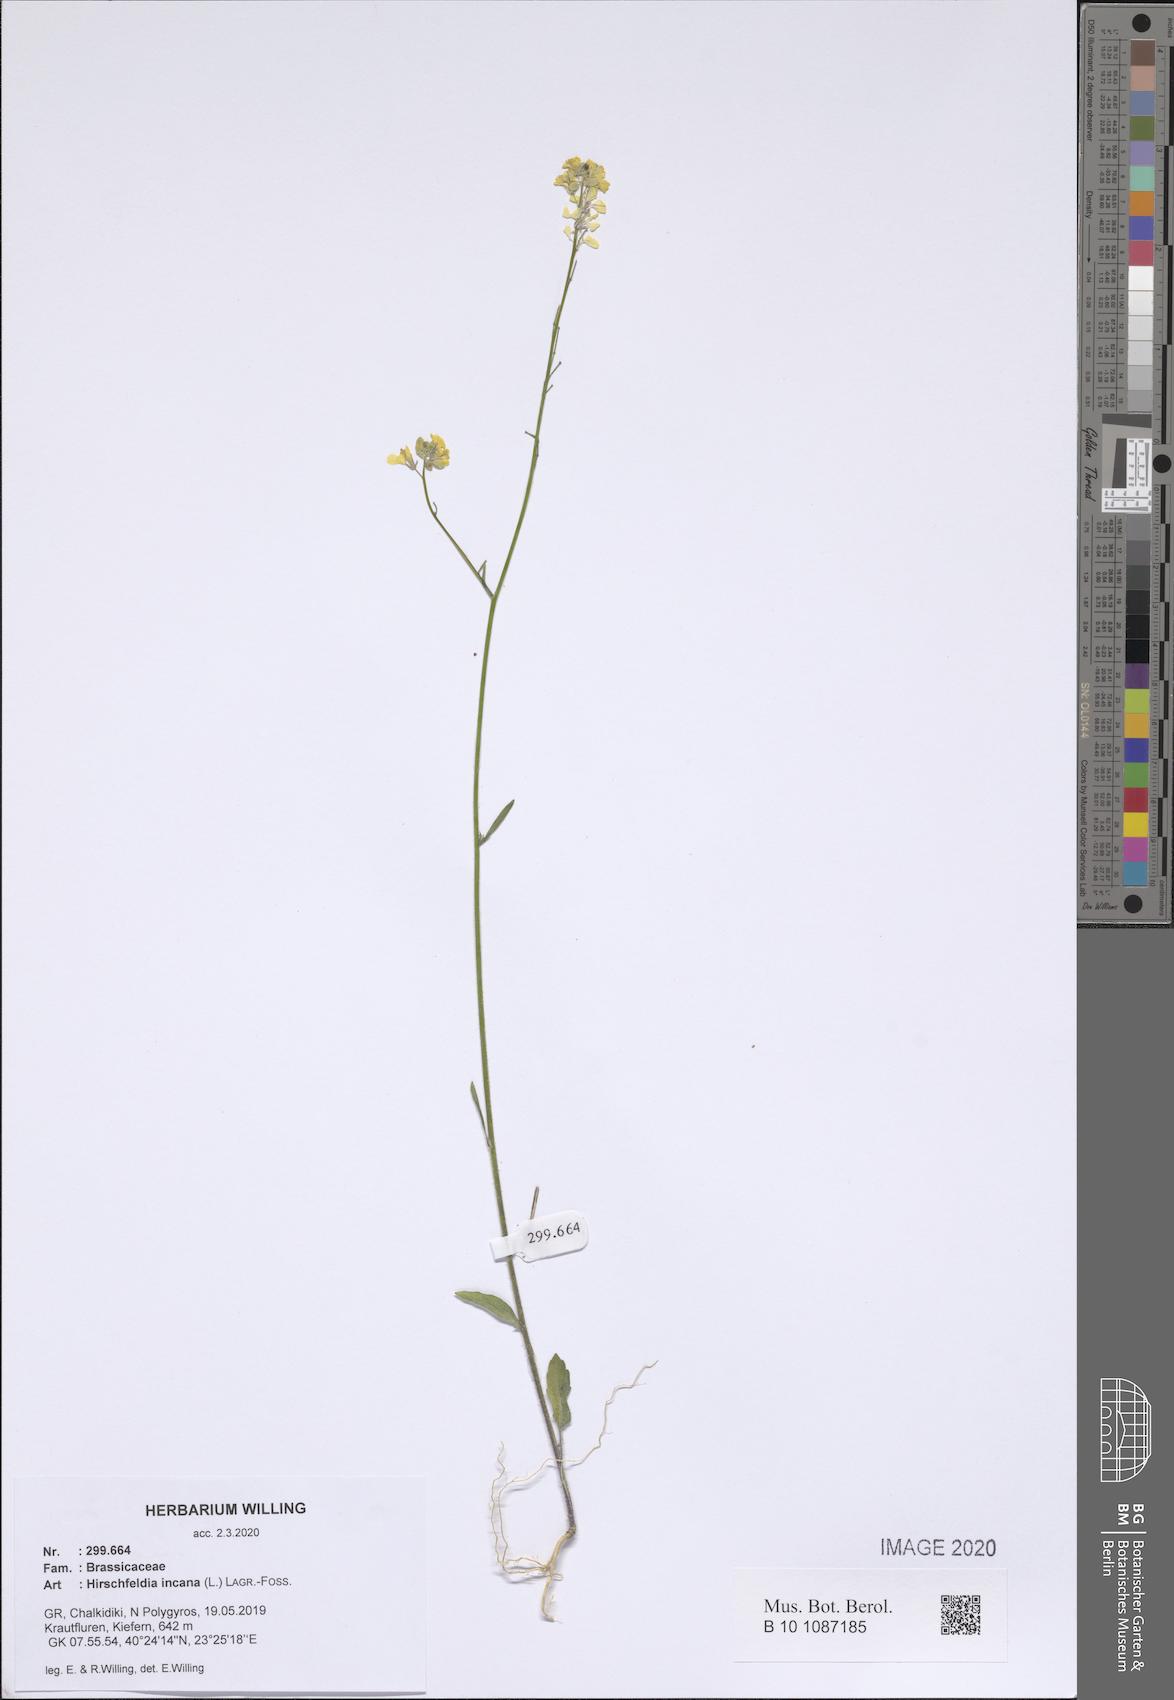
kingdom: Plantae
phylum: Tracheophyta
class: Magnoliopsida
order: Brassicales
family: Brassicaceae
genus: Hirschfeldia
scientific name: Hirschfeldia incana
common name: Hoary mustard
